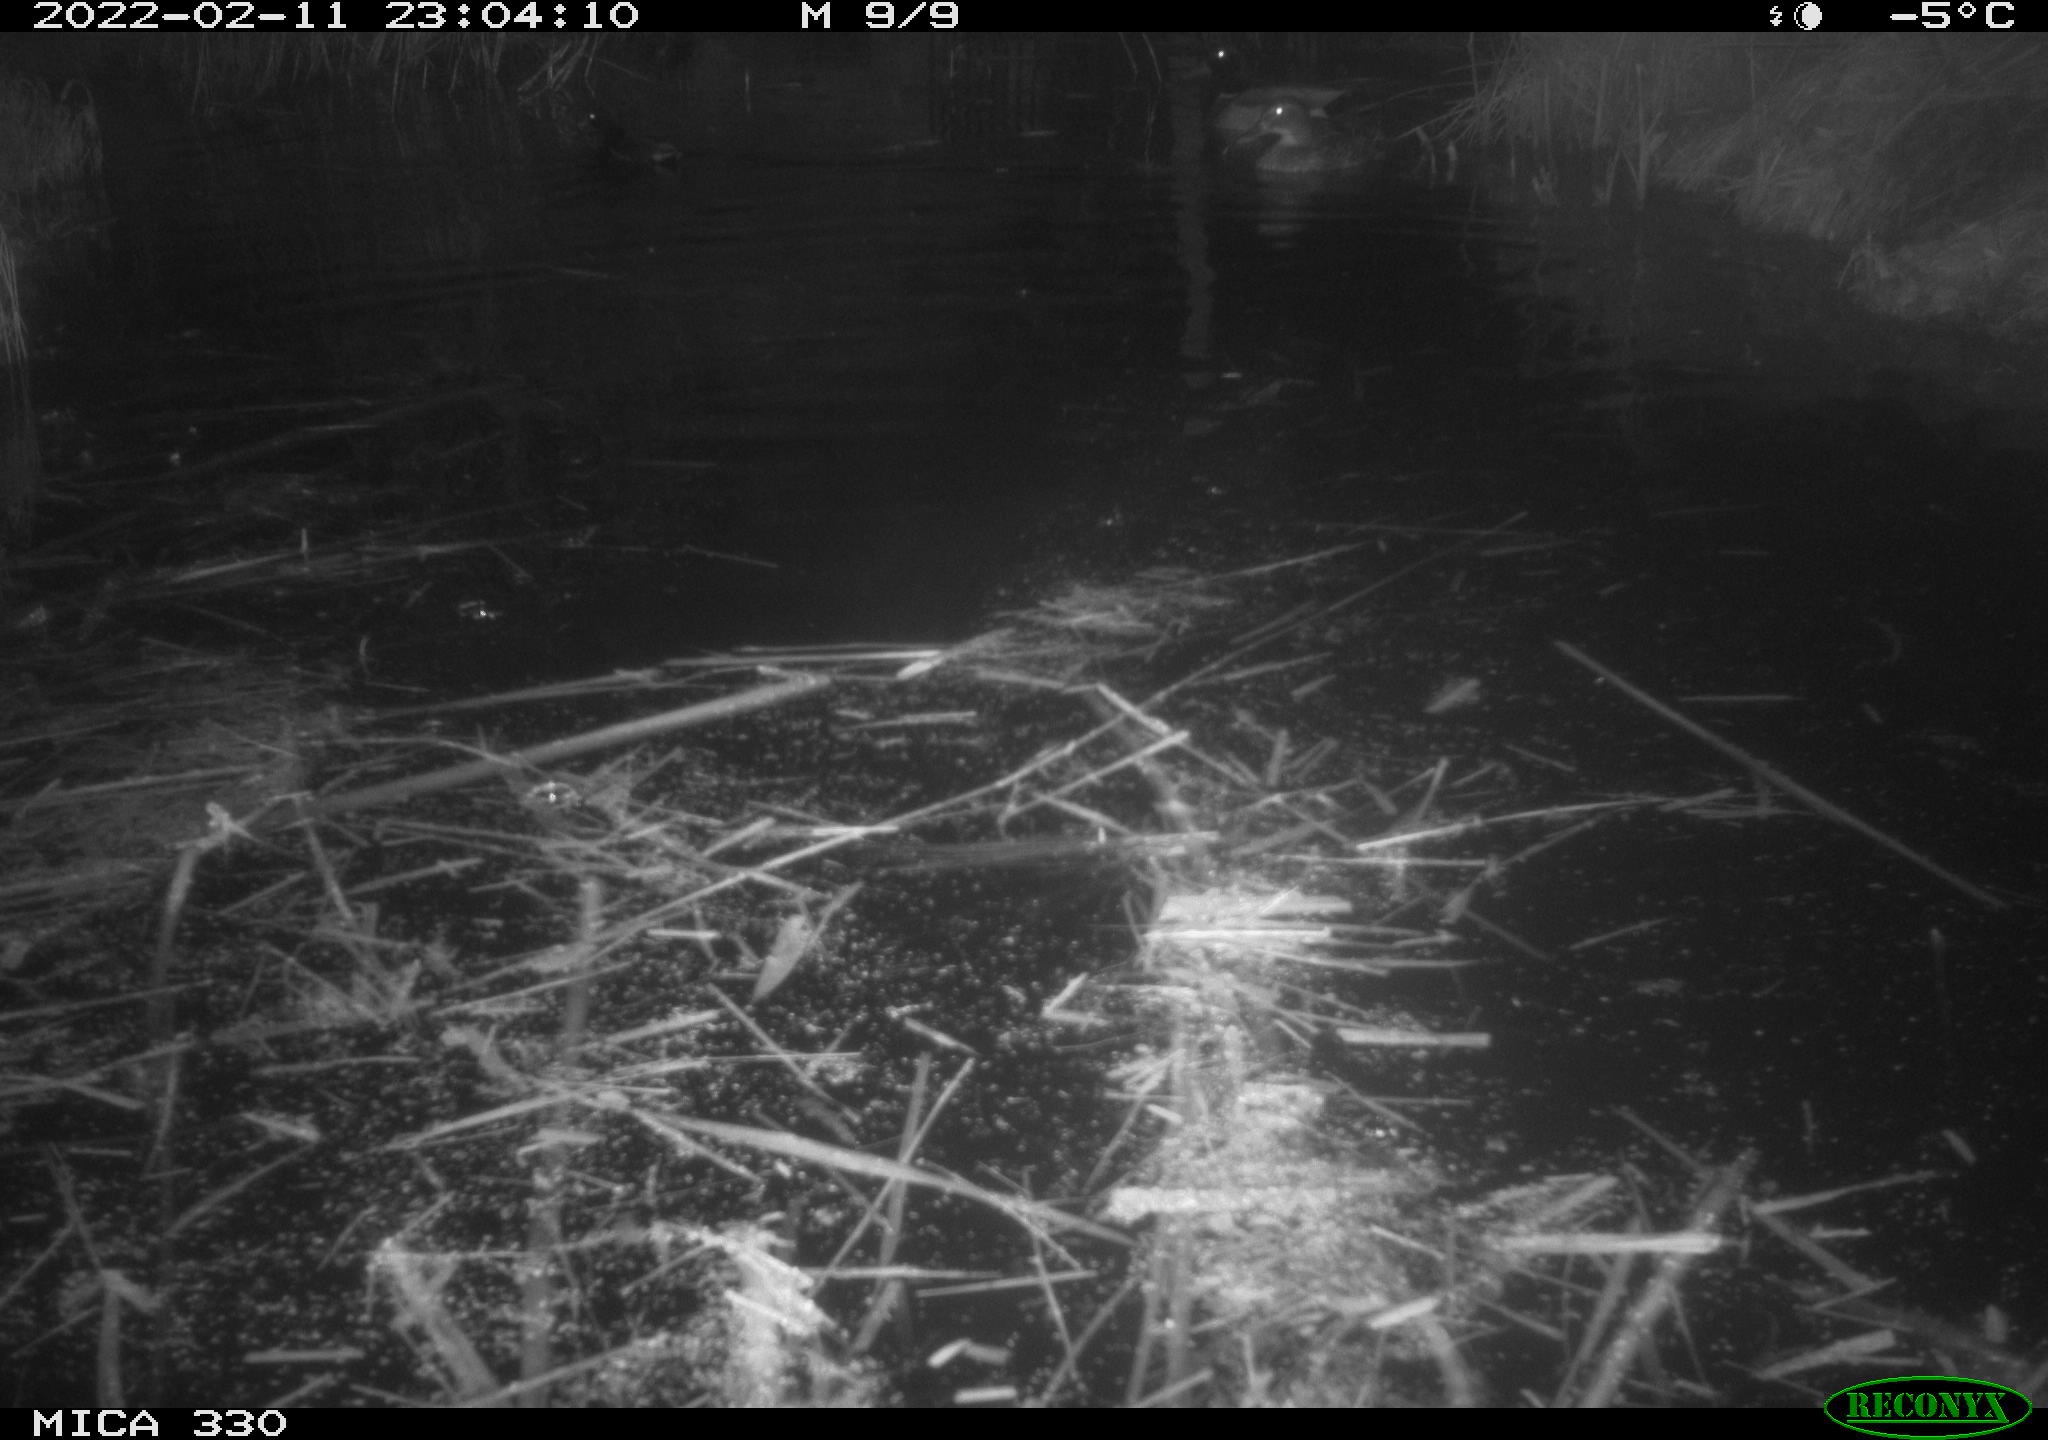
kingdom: Animalia
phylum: Chordata
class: Aves
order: Gruiformes
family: Rallidae
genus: Gallinula
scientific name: Gallinula chloropus
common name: Common moorhen
